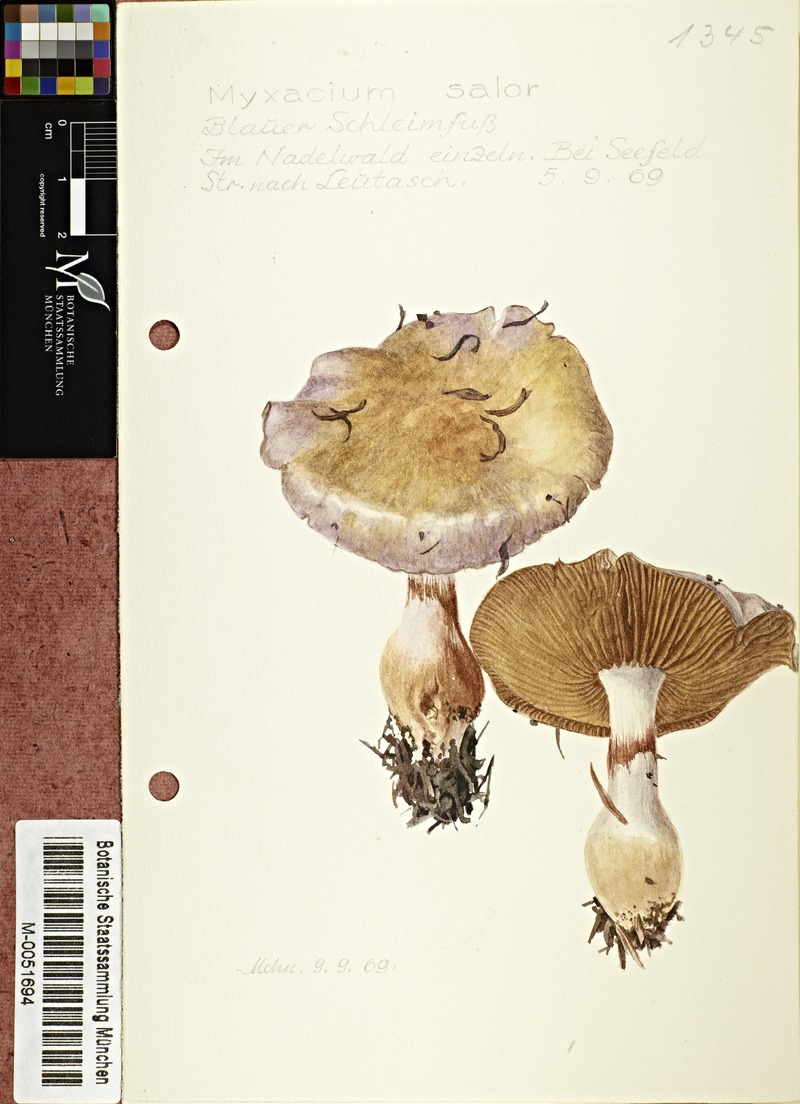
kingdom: Fungi
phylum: Basidiomycota
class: Agaricomycetes
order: Agaricales
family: Cortinariaceae
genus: Cortinarius
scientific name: Cortinarius salor
